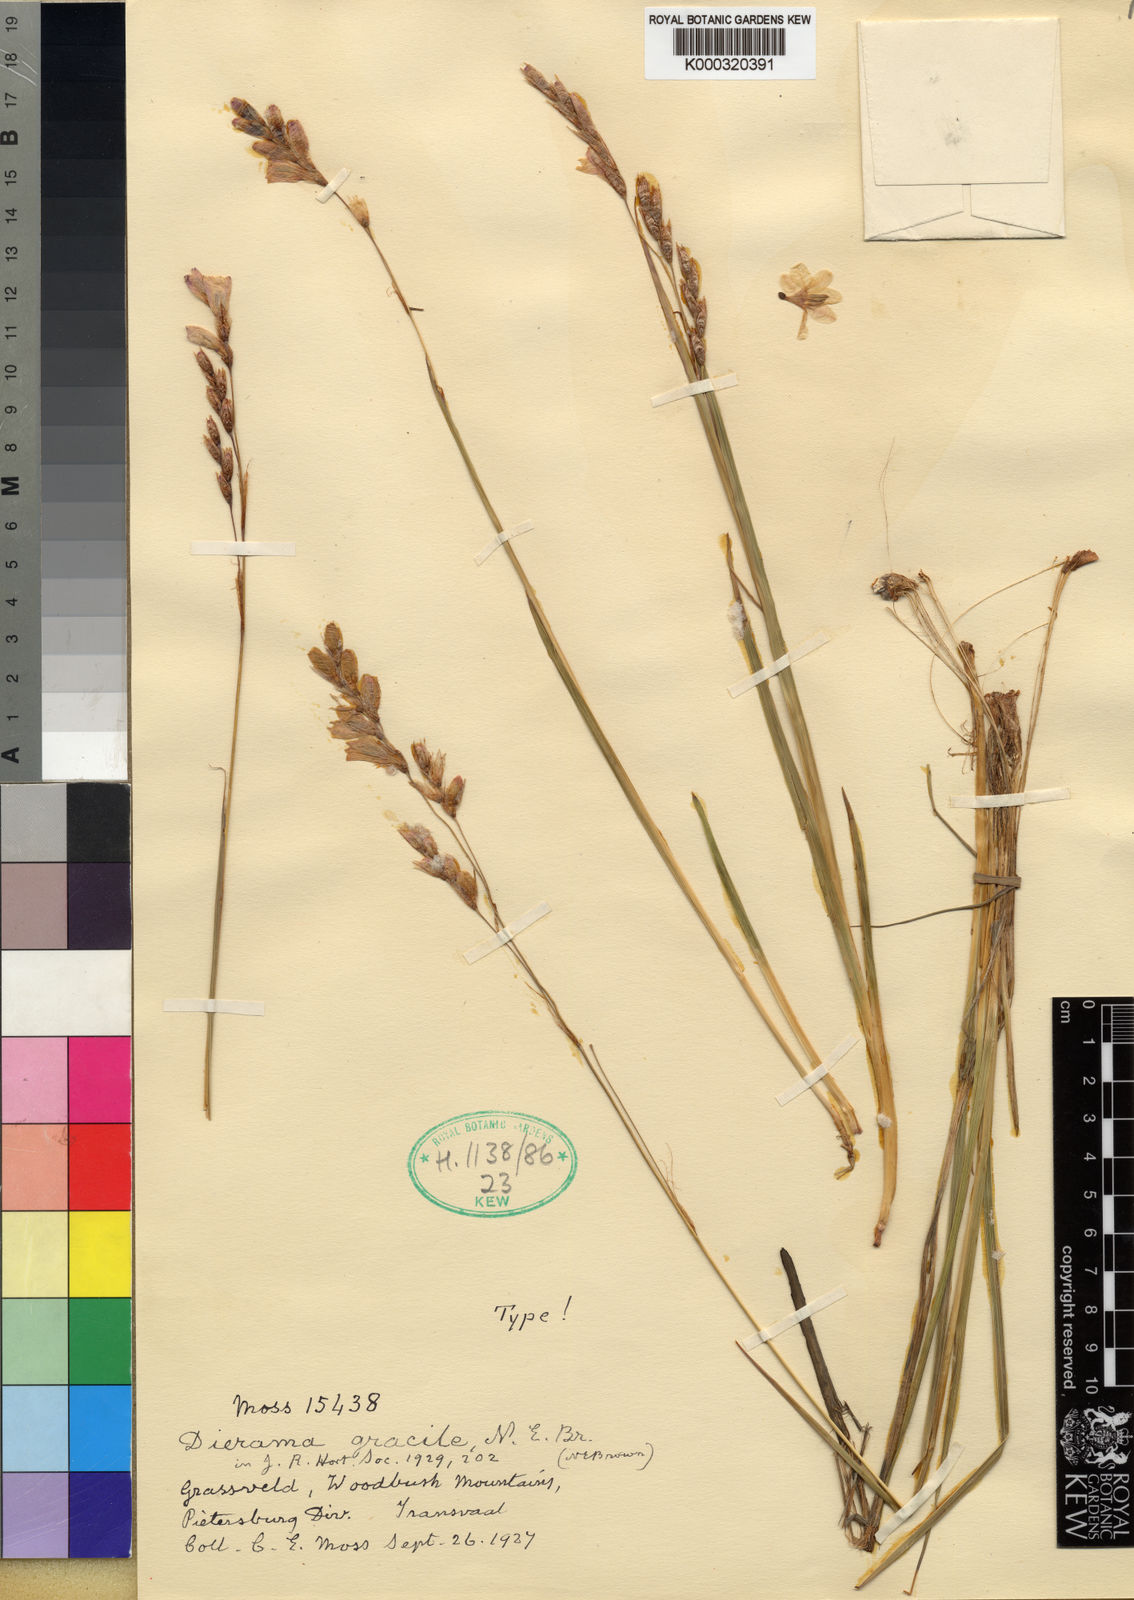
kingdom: Plantae
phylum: Tracheophyta
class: Liliopsida
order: Asparagales
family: Iridaceae
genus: Dierama
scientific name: Dierama gracile
